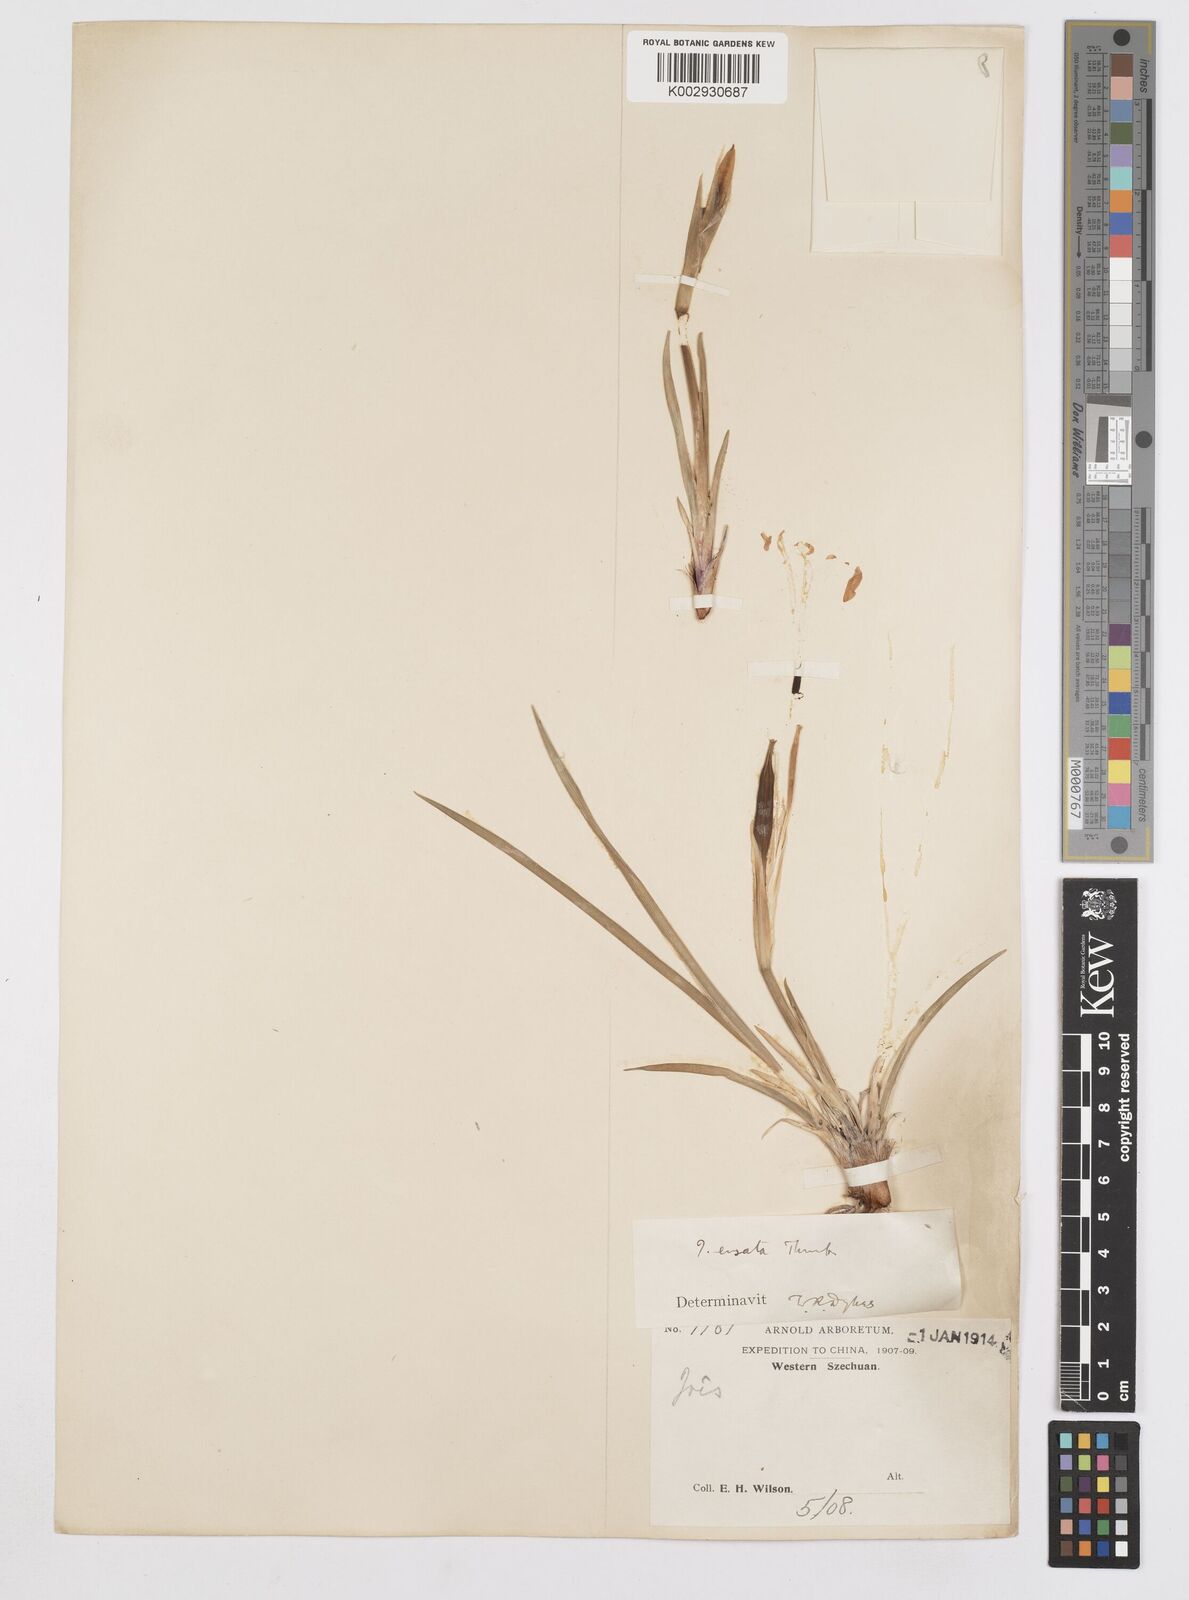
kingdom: Plantae
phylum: Tracheophyta
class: Liliopsida
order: Asparagales
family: Iridaceae
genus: Iris
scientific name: Iris ensata
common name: Beaked iris
